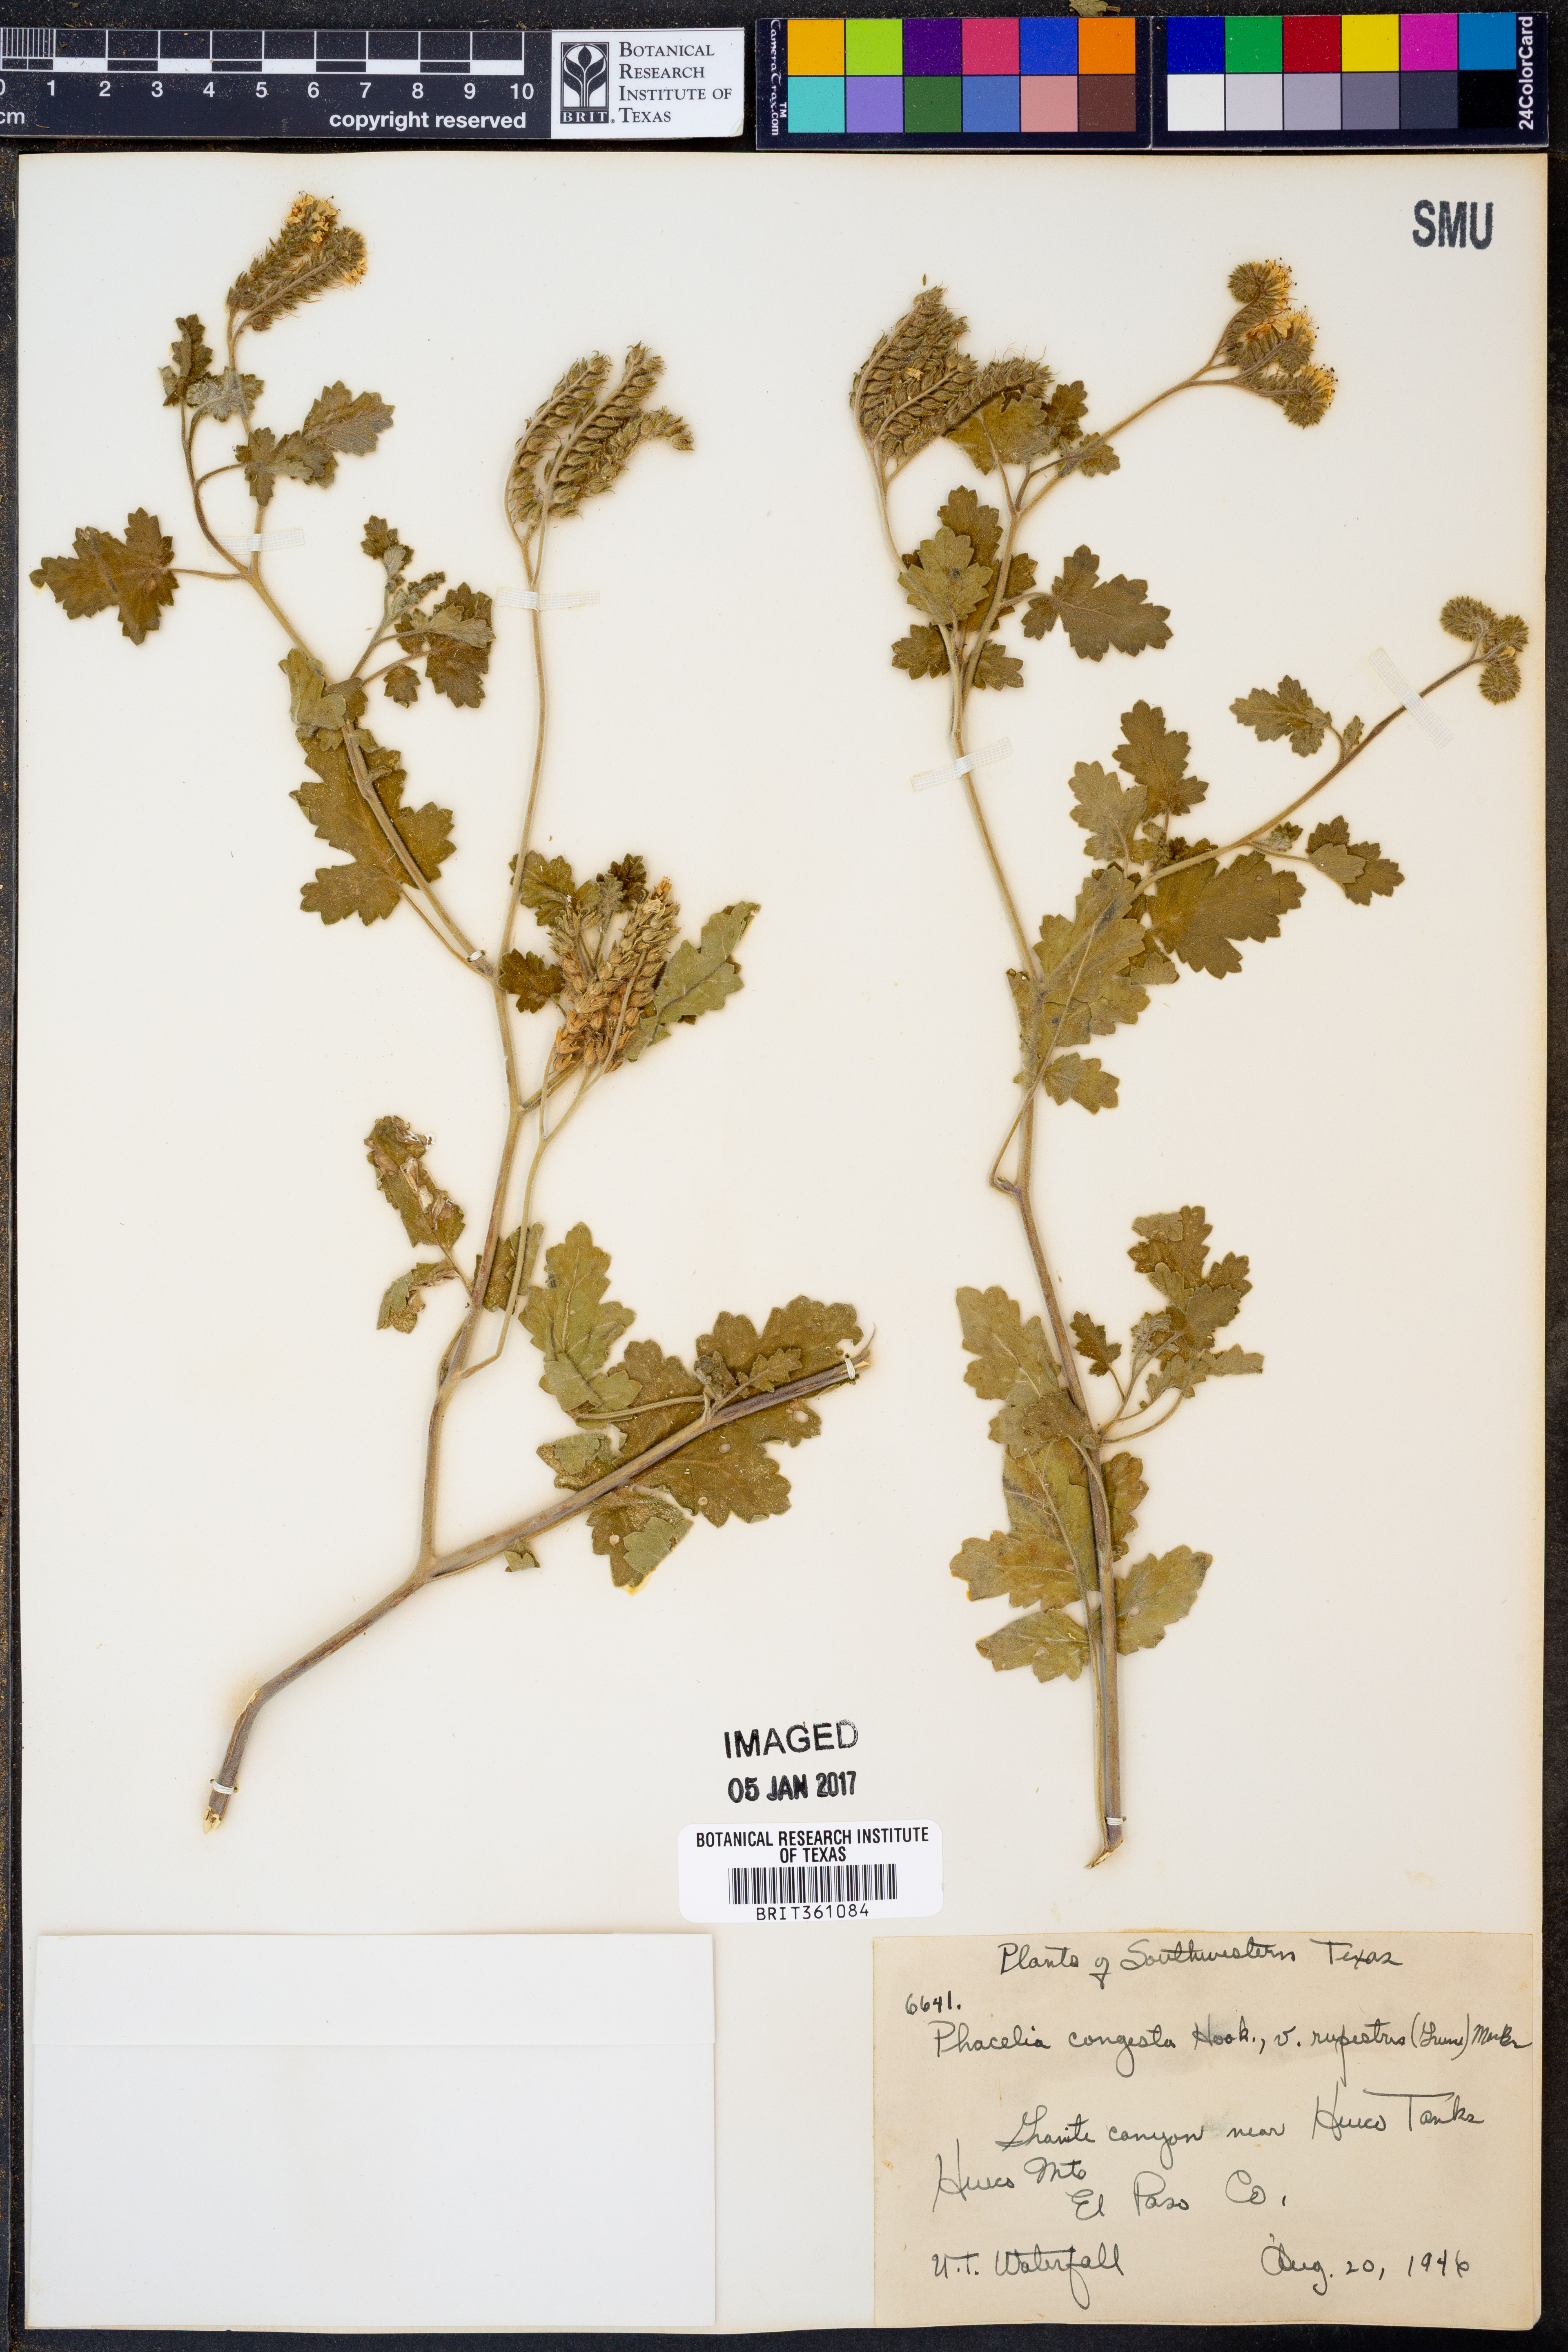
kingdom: Plantae
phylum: Tracheophyta
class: Magnoliopsida
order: Boraginales
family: Hydrophyllaceae
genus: Phacelia
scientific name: Phacelia rupestris
